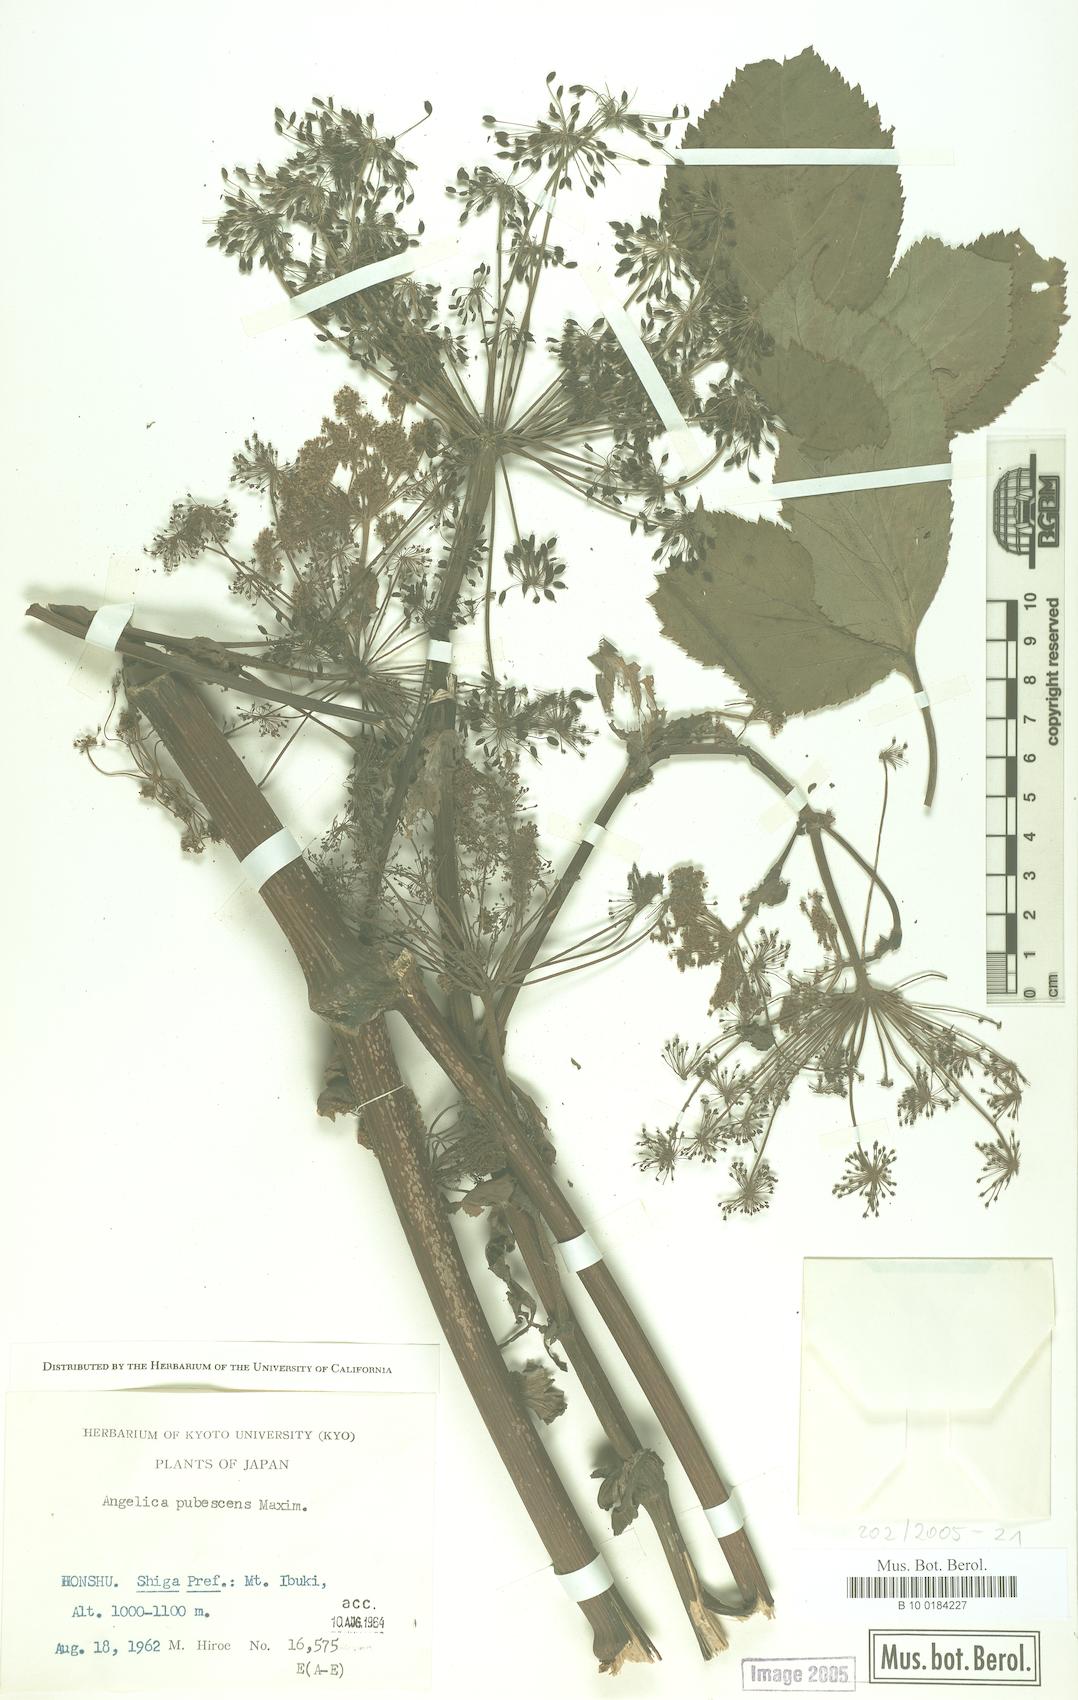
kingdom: Plantae
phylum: Tracheophyta
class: Magnoliopsida
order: Apiales
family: Apiaceae
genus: Angelica
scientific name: Angelica pubescens
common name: Pubescent angelica
